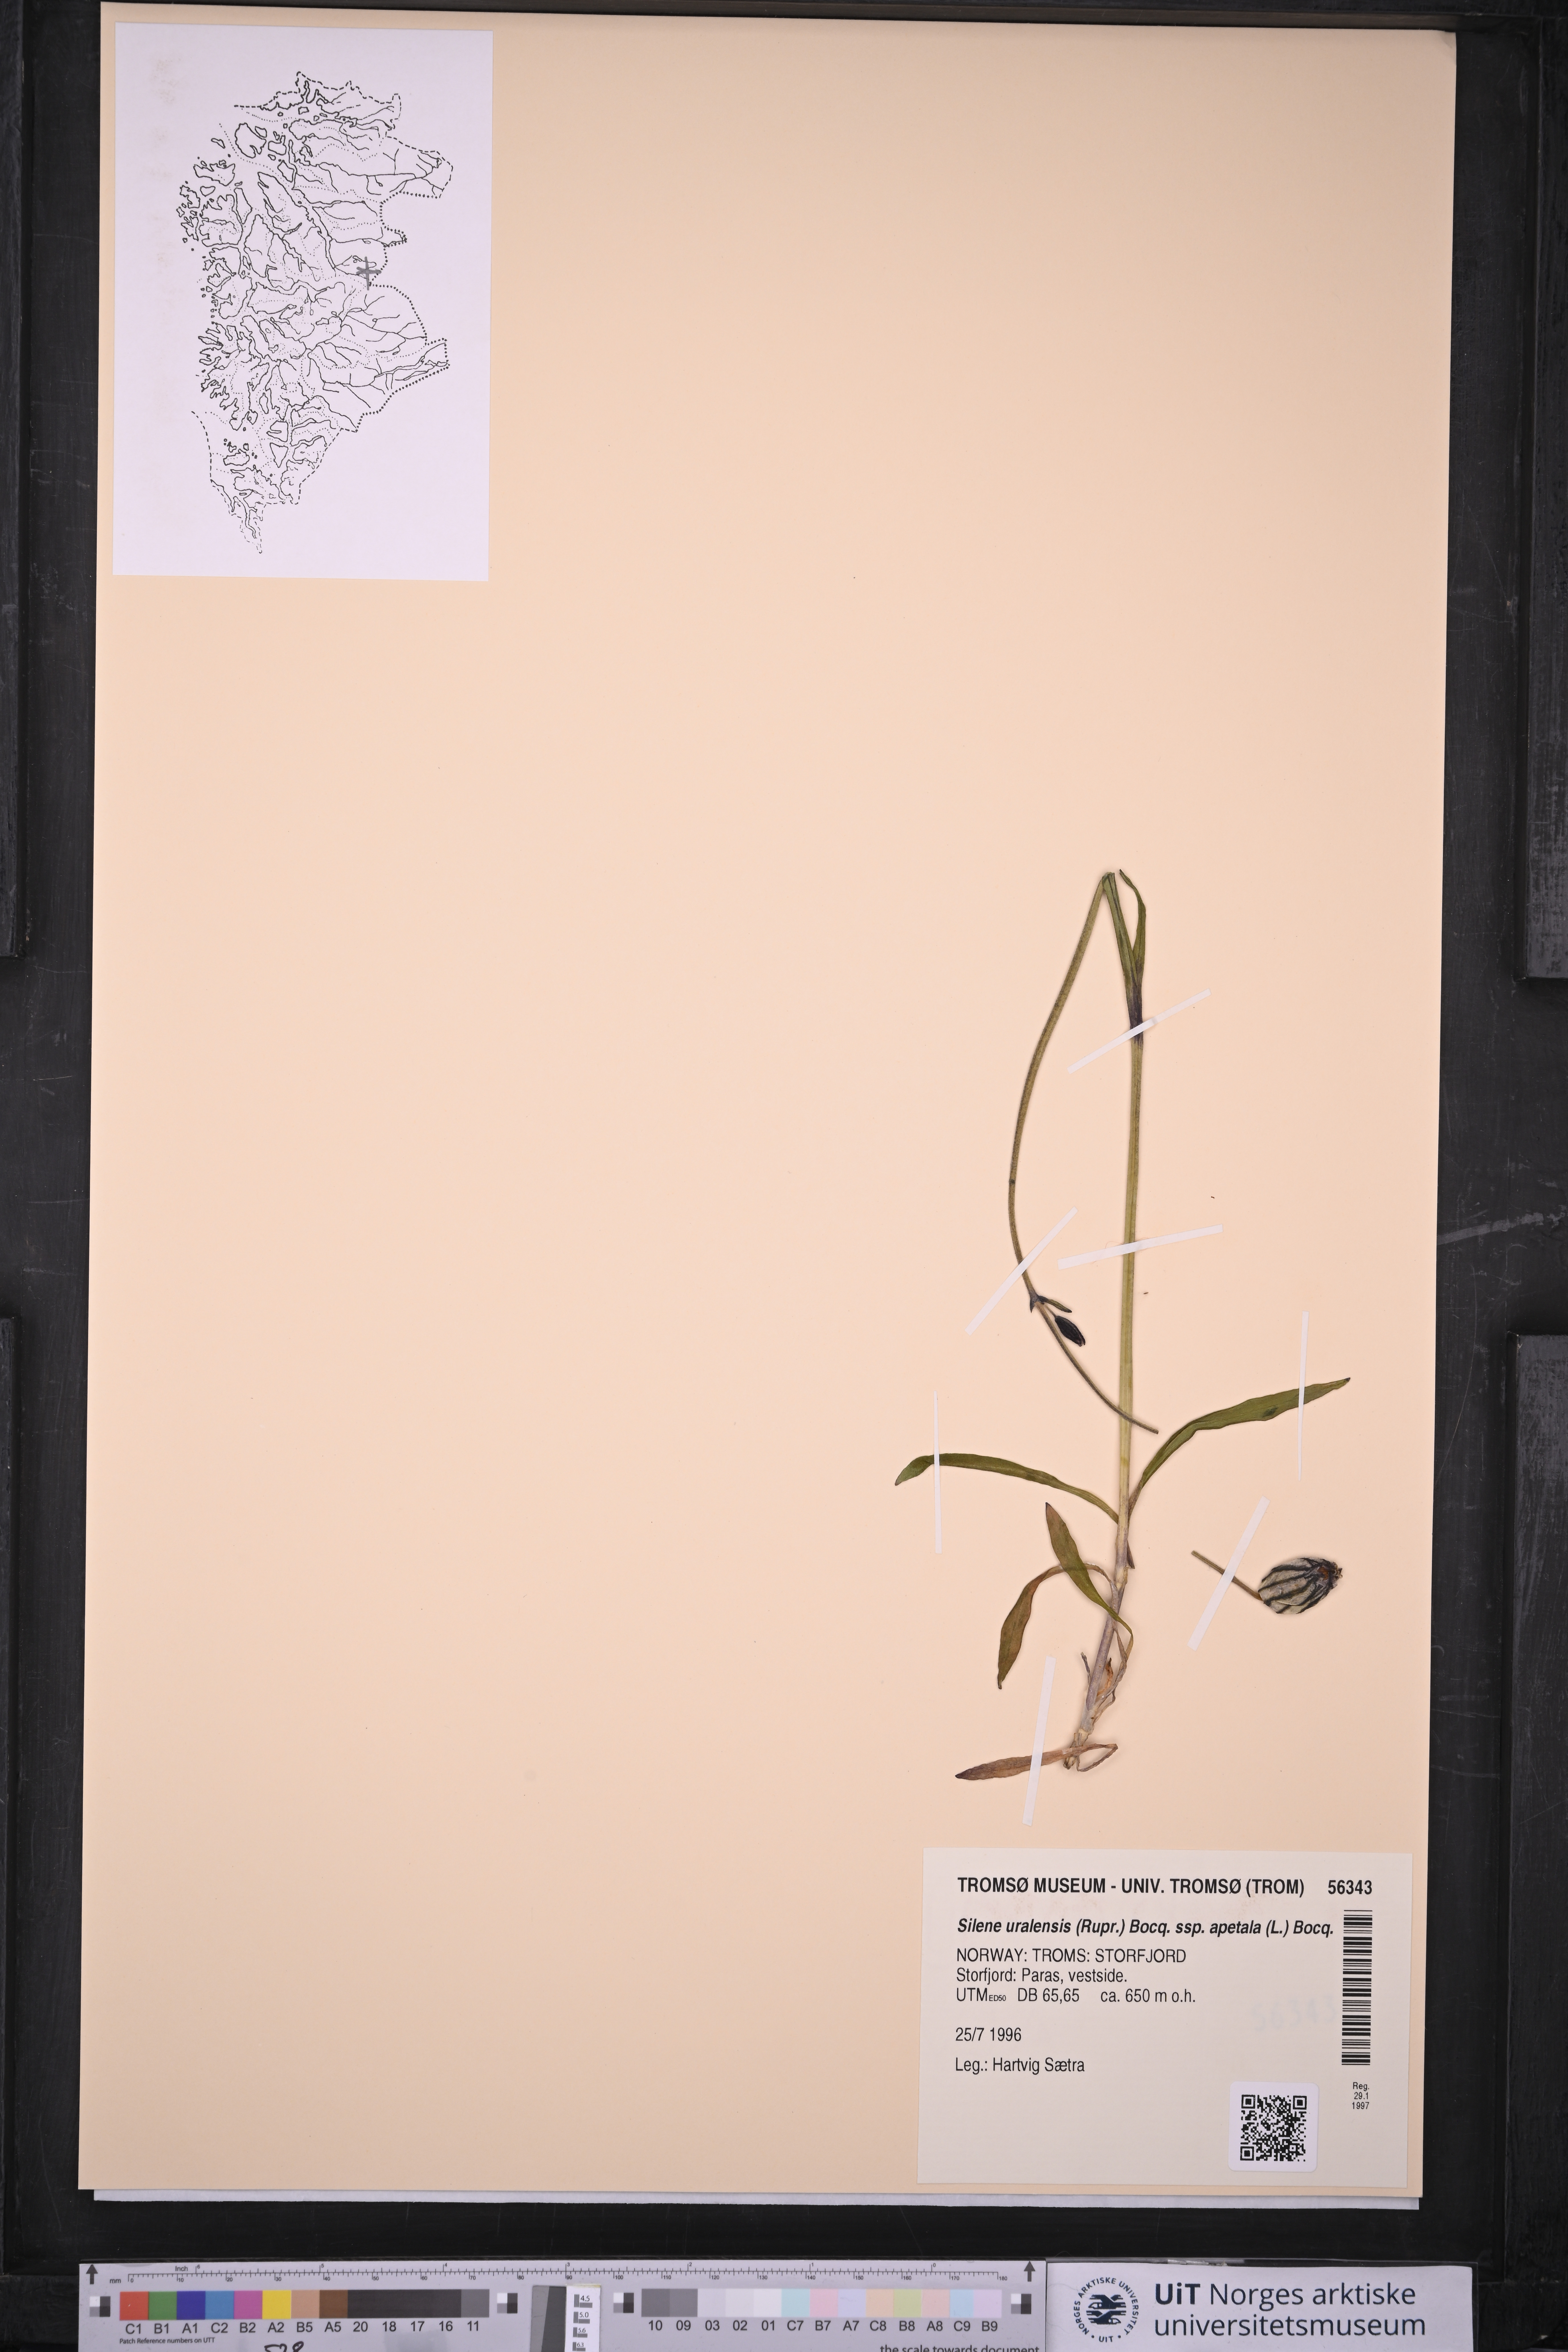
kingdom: Plantae
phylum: Tracheophyta
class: Magnoliopsida
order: Caryophyllales
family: Caryophyllaceae
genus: Silene
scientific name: Silene wahlbergella
